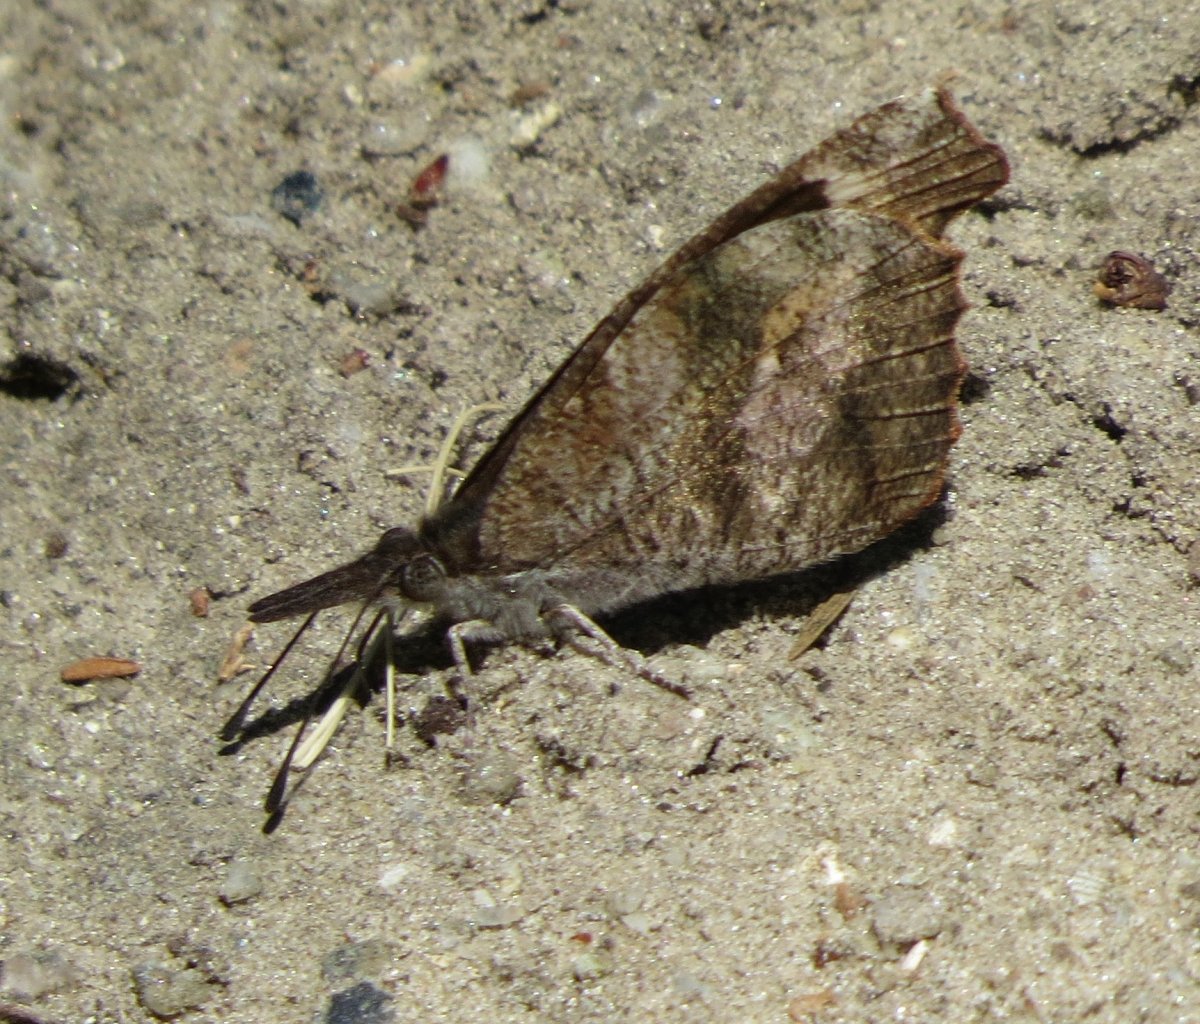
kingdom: Animalia
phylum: Arthropoda
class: Insecta
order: Lepidoptera
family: Nymphalidae
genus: Libytheana
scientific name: Libytheana carinenta
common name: American Snout
